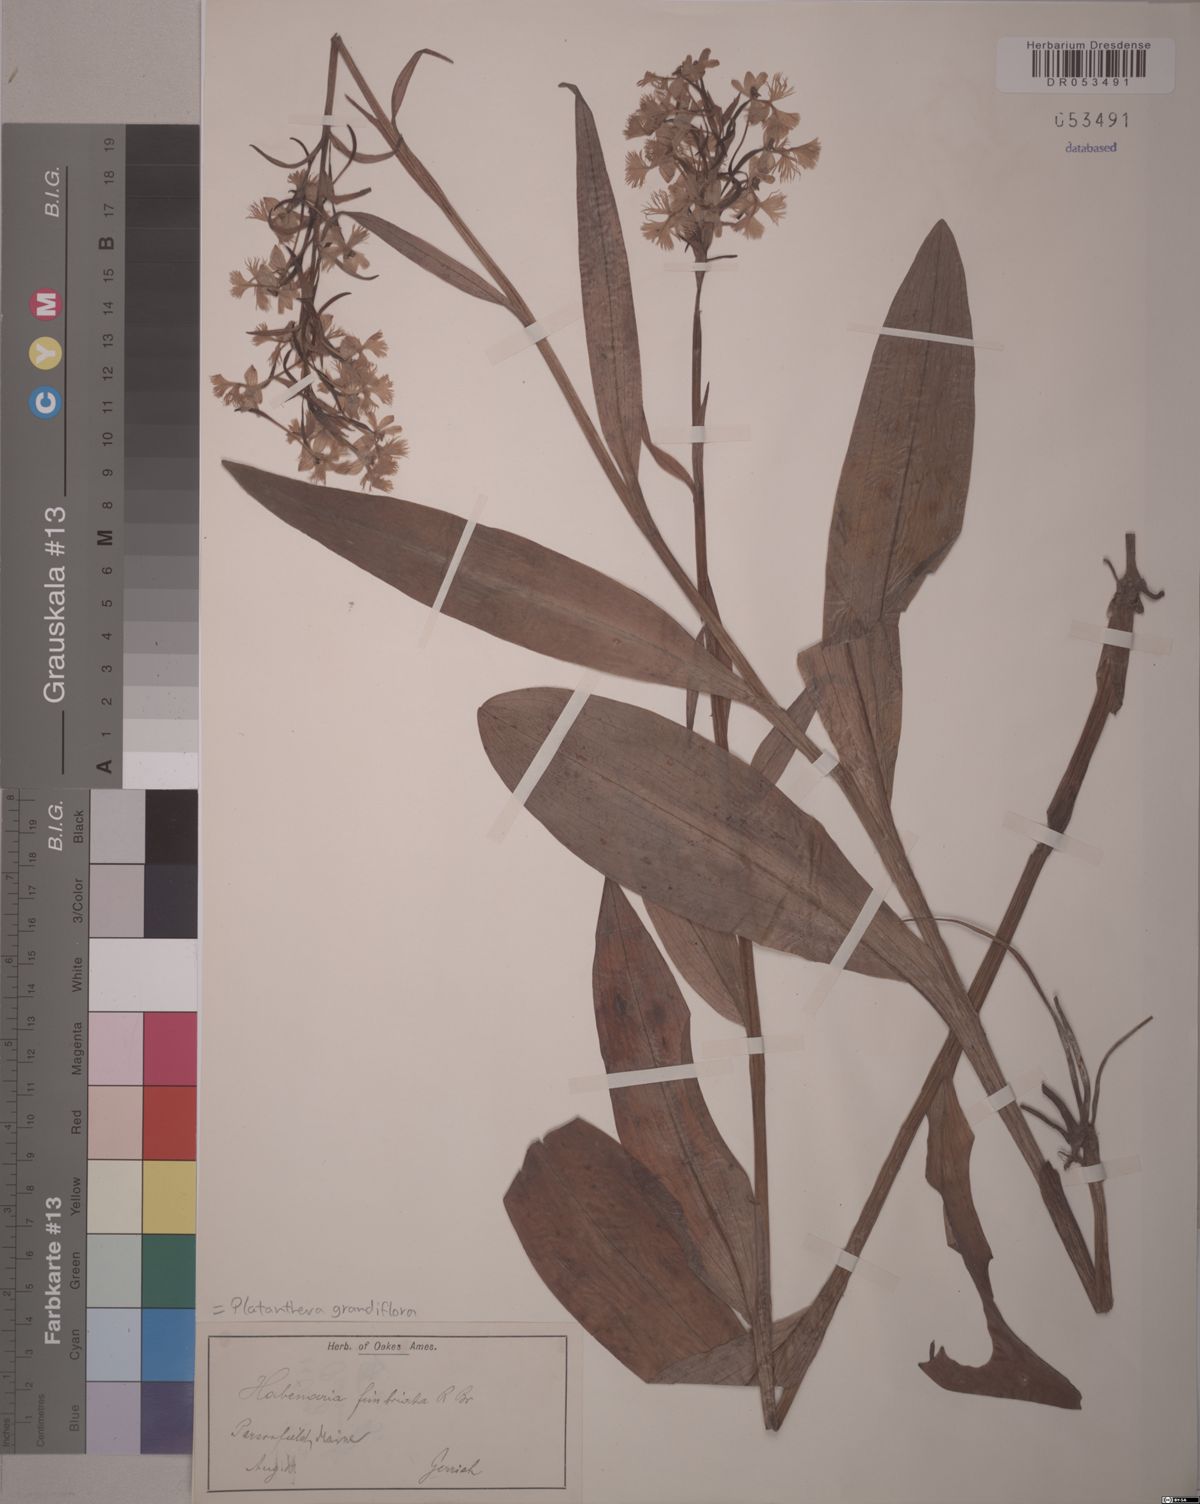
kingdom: Plantae
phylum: Tracheophyta
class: Liliopsida
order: Asparagales
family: Orchidaceae
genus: Platanthera
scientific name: Platanthera grandiflora
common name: Greater purple fringed orchid
